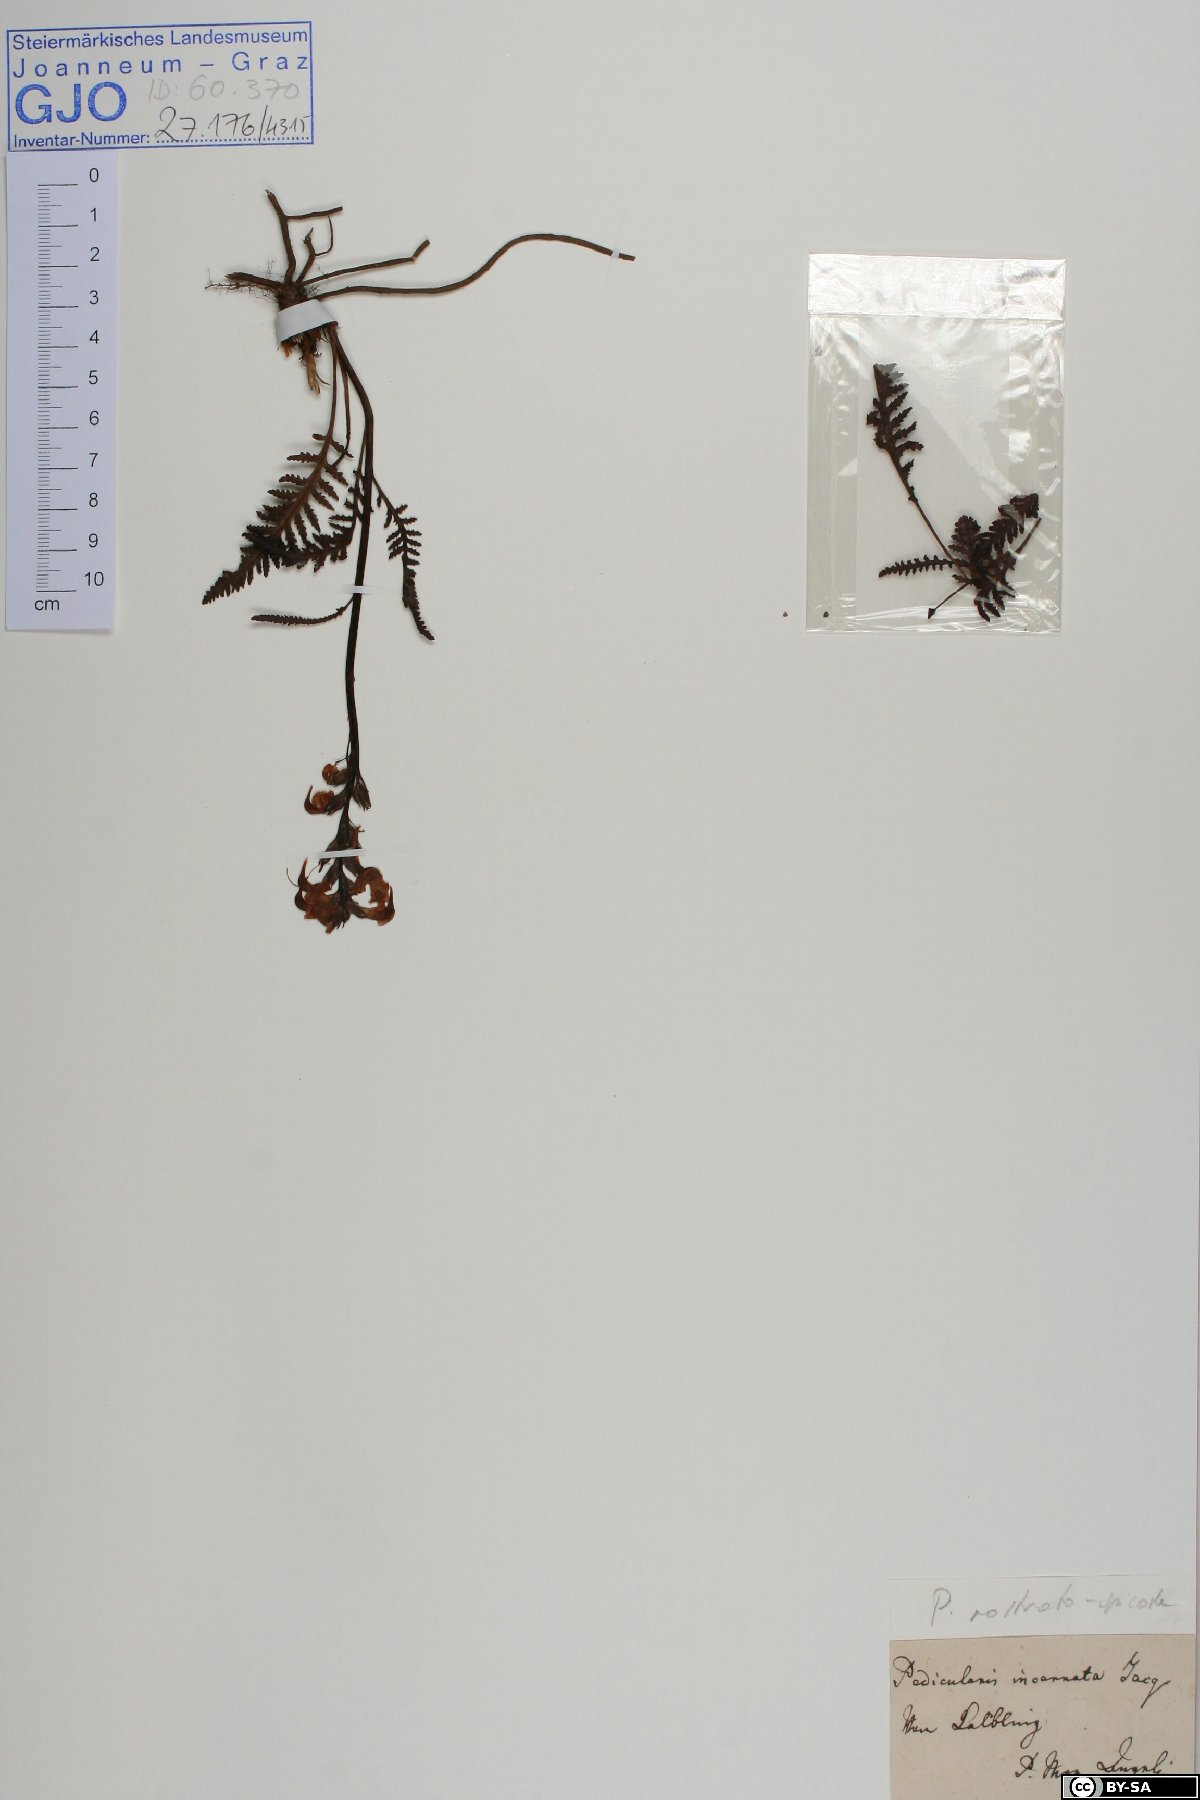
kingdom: Plantae
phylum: Tracheophyta
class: Magnoliopsida
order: Lamiales
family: Orobanchaceae
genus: Pedicularis
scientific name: Pedicularis rostratospicata
